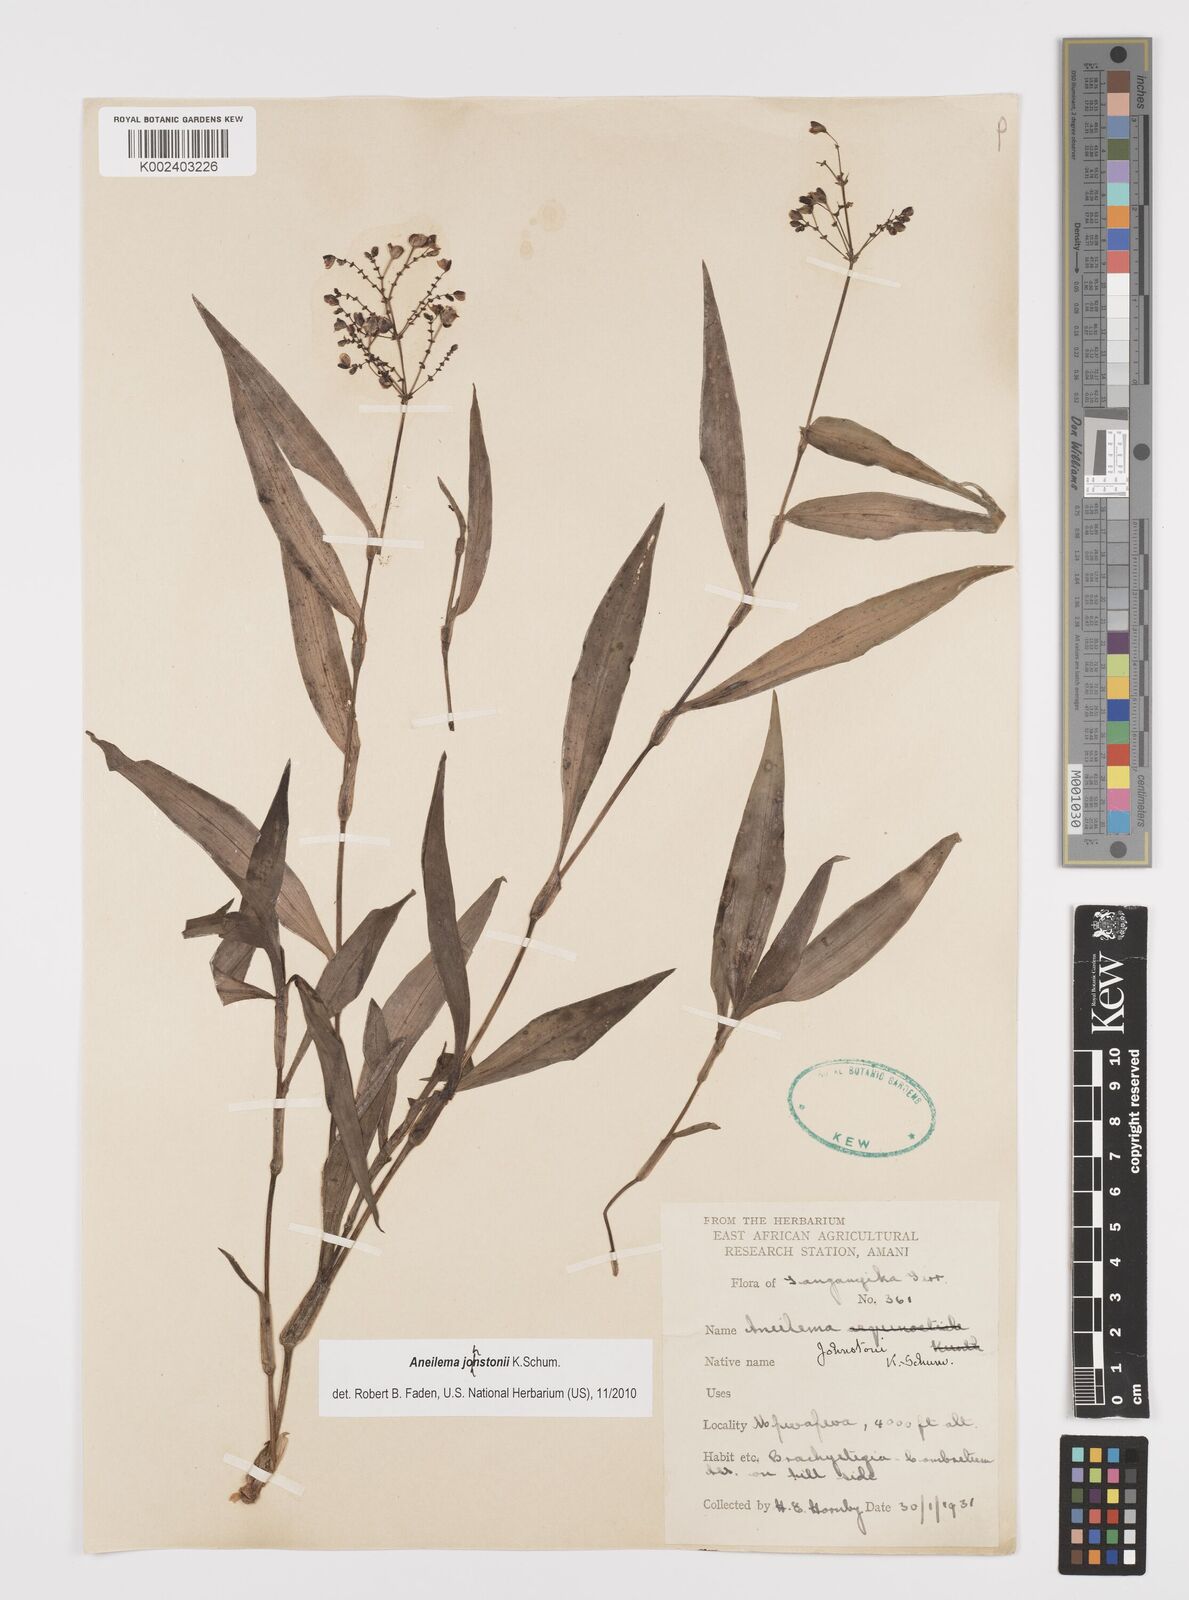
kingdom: Plantae
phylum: Tracheophyta
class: Liliopsida
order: Commelinales
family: Commelinaceae
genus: Aneilema
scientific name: Aneilema johnstonii
